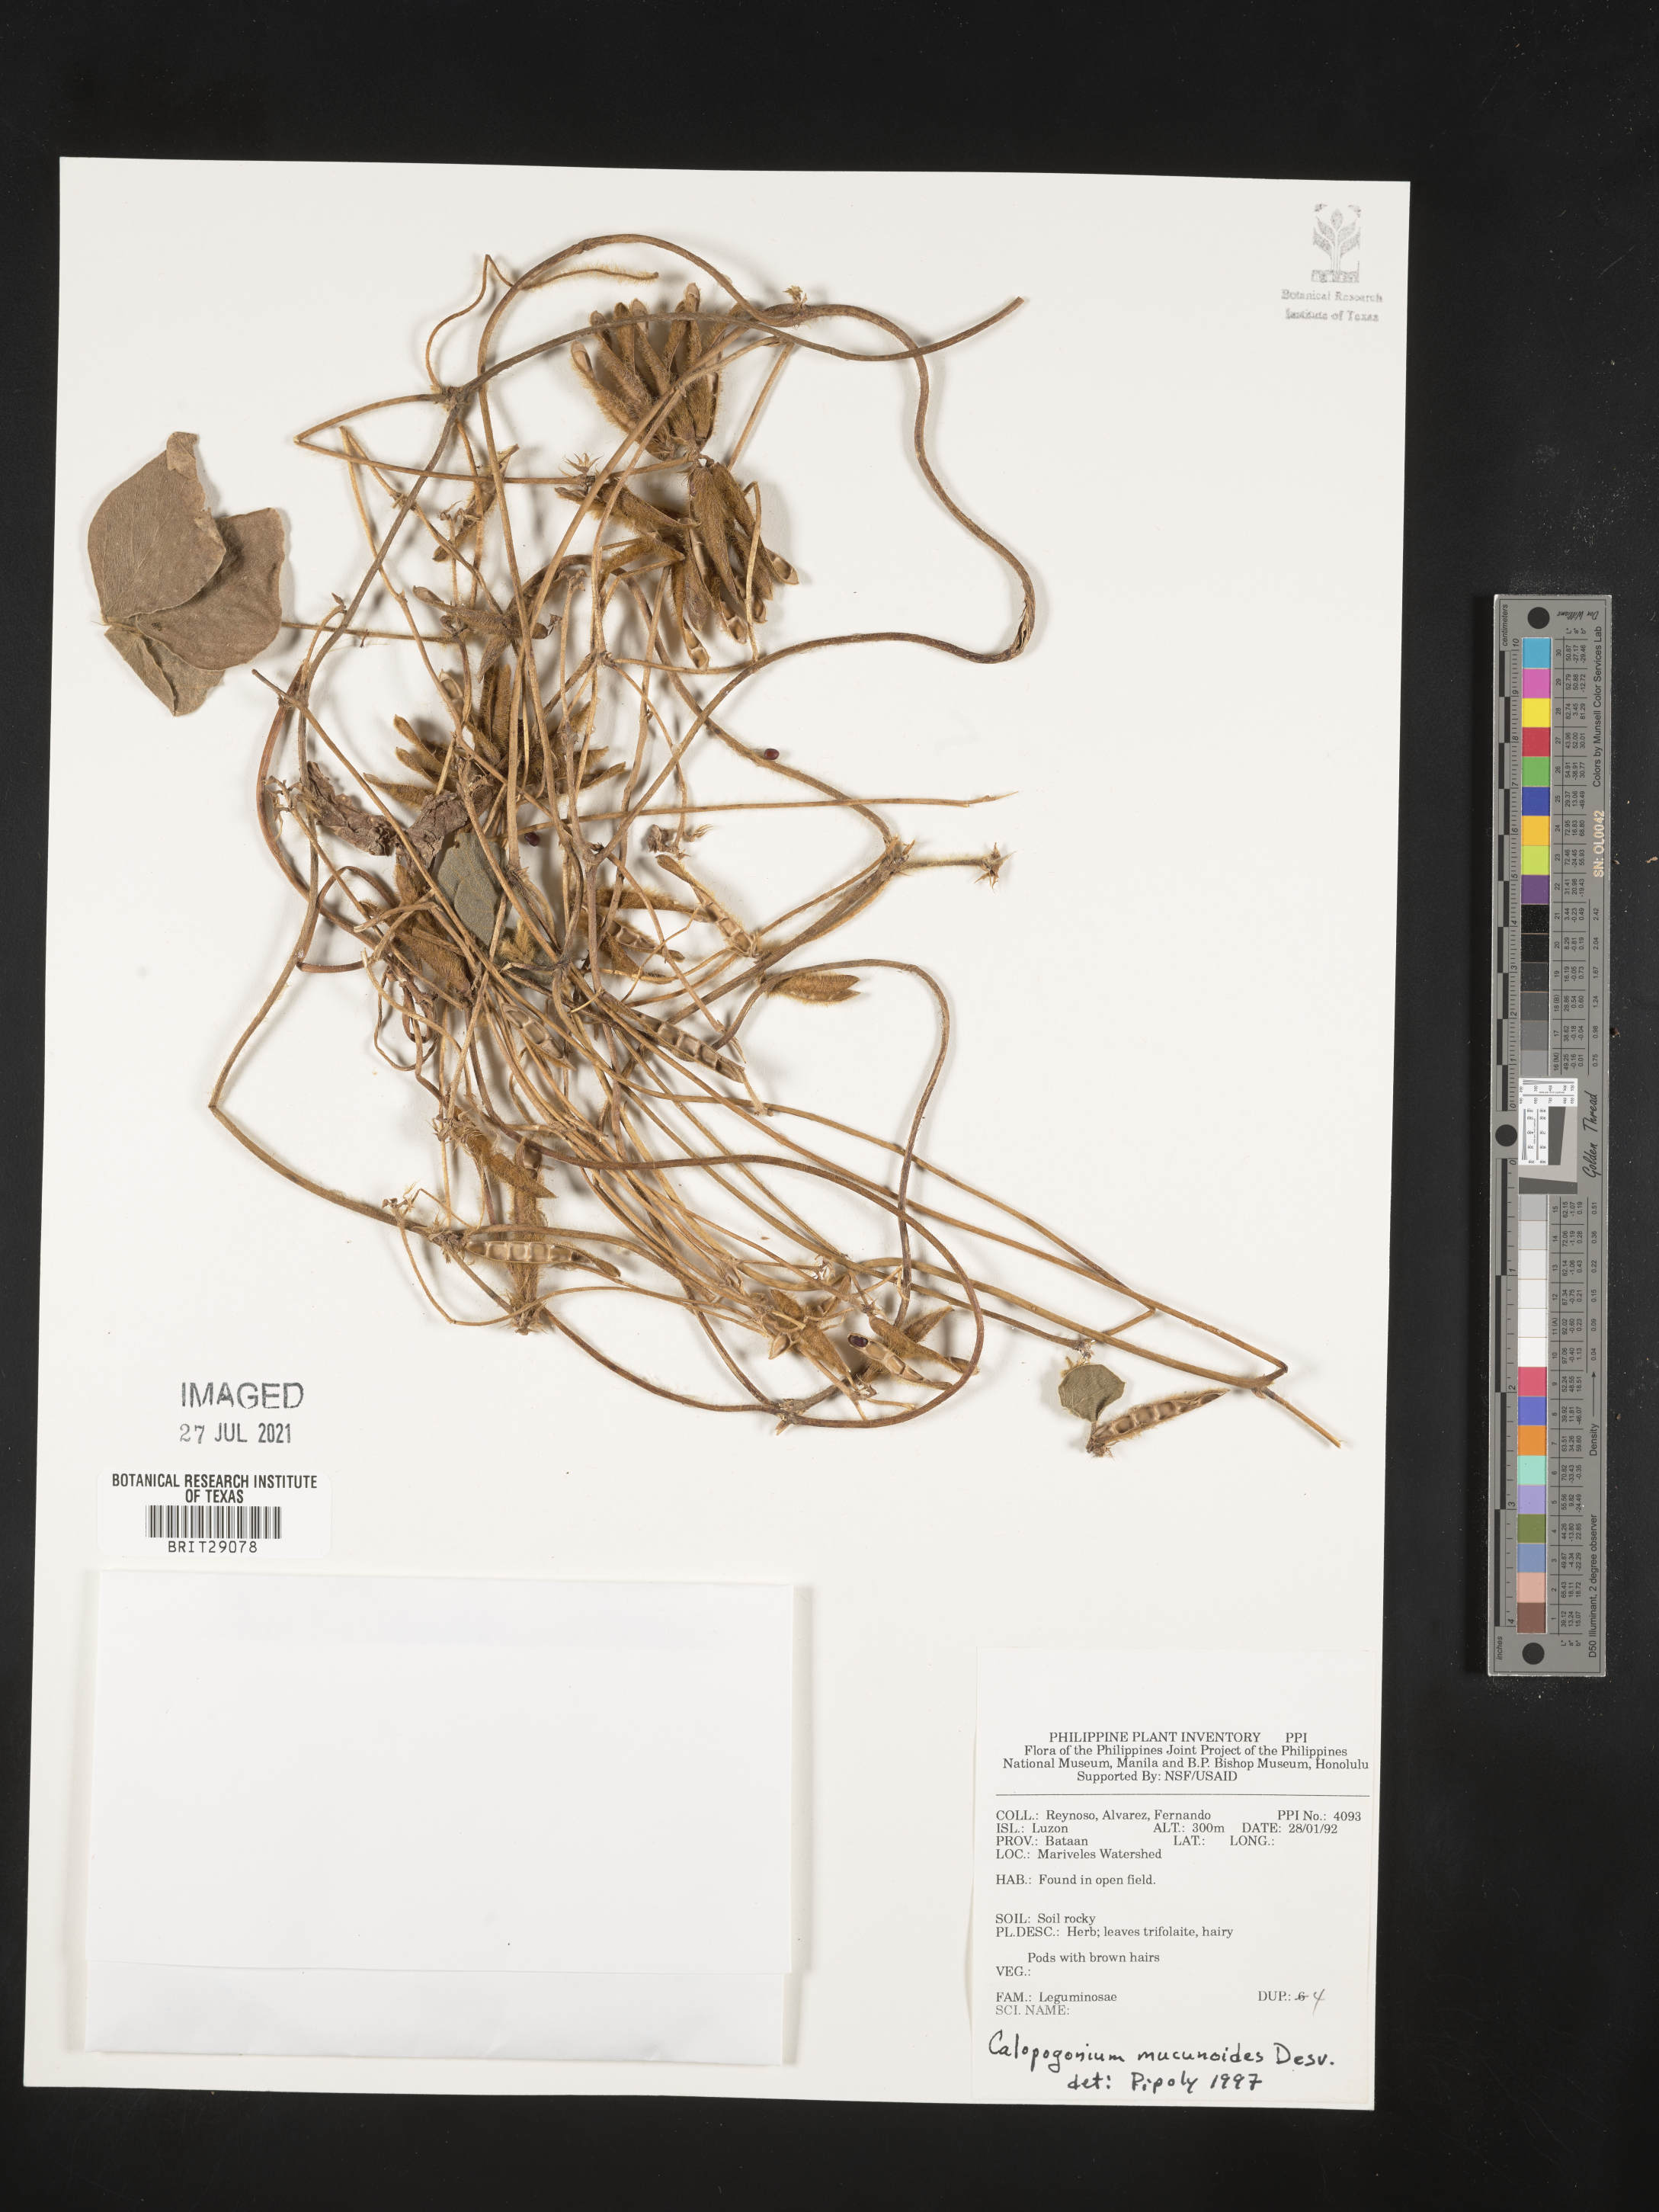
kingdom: Plantae
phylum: Tracheophyta
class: Magnoliopsida
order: Fabales
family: Fabaceae
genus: Calopogonium
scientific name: Calopogonium mucunoides
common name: Calopo
